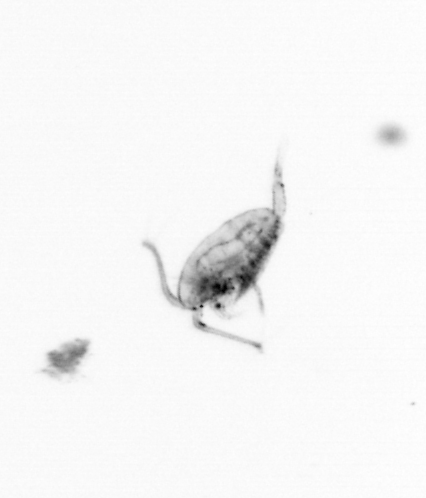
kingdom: Animalia
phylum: Arthropoda
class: Copepoda
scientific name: Copepoda
